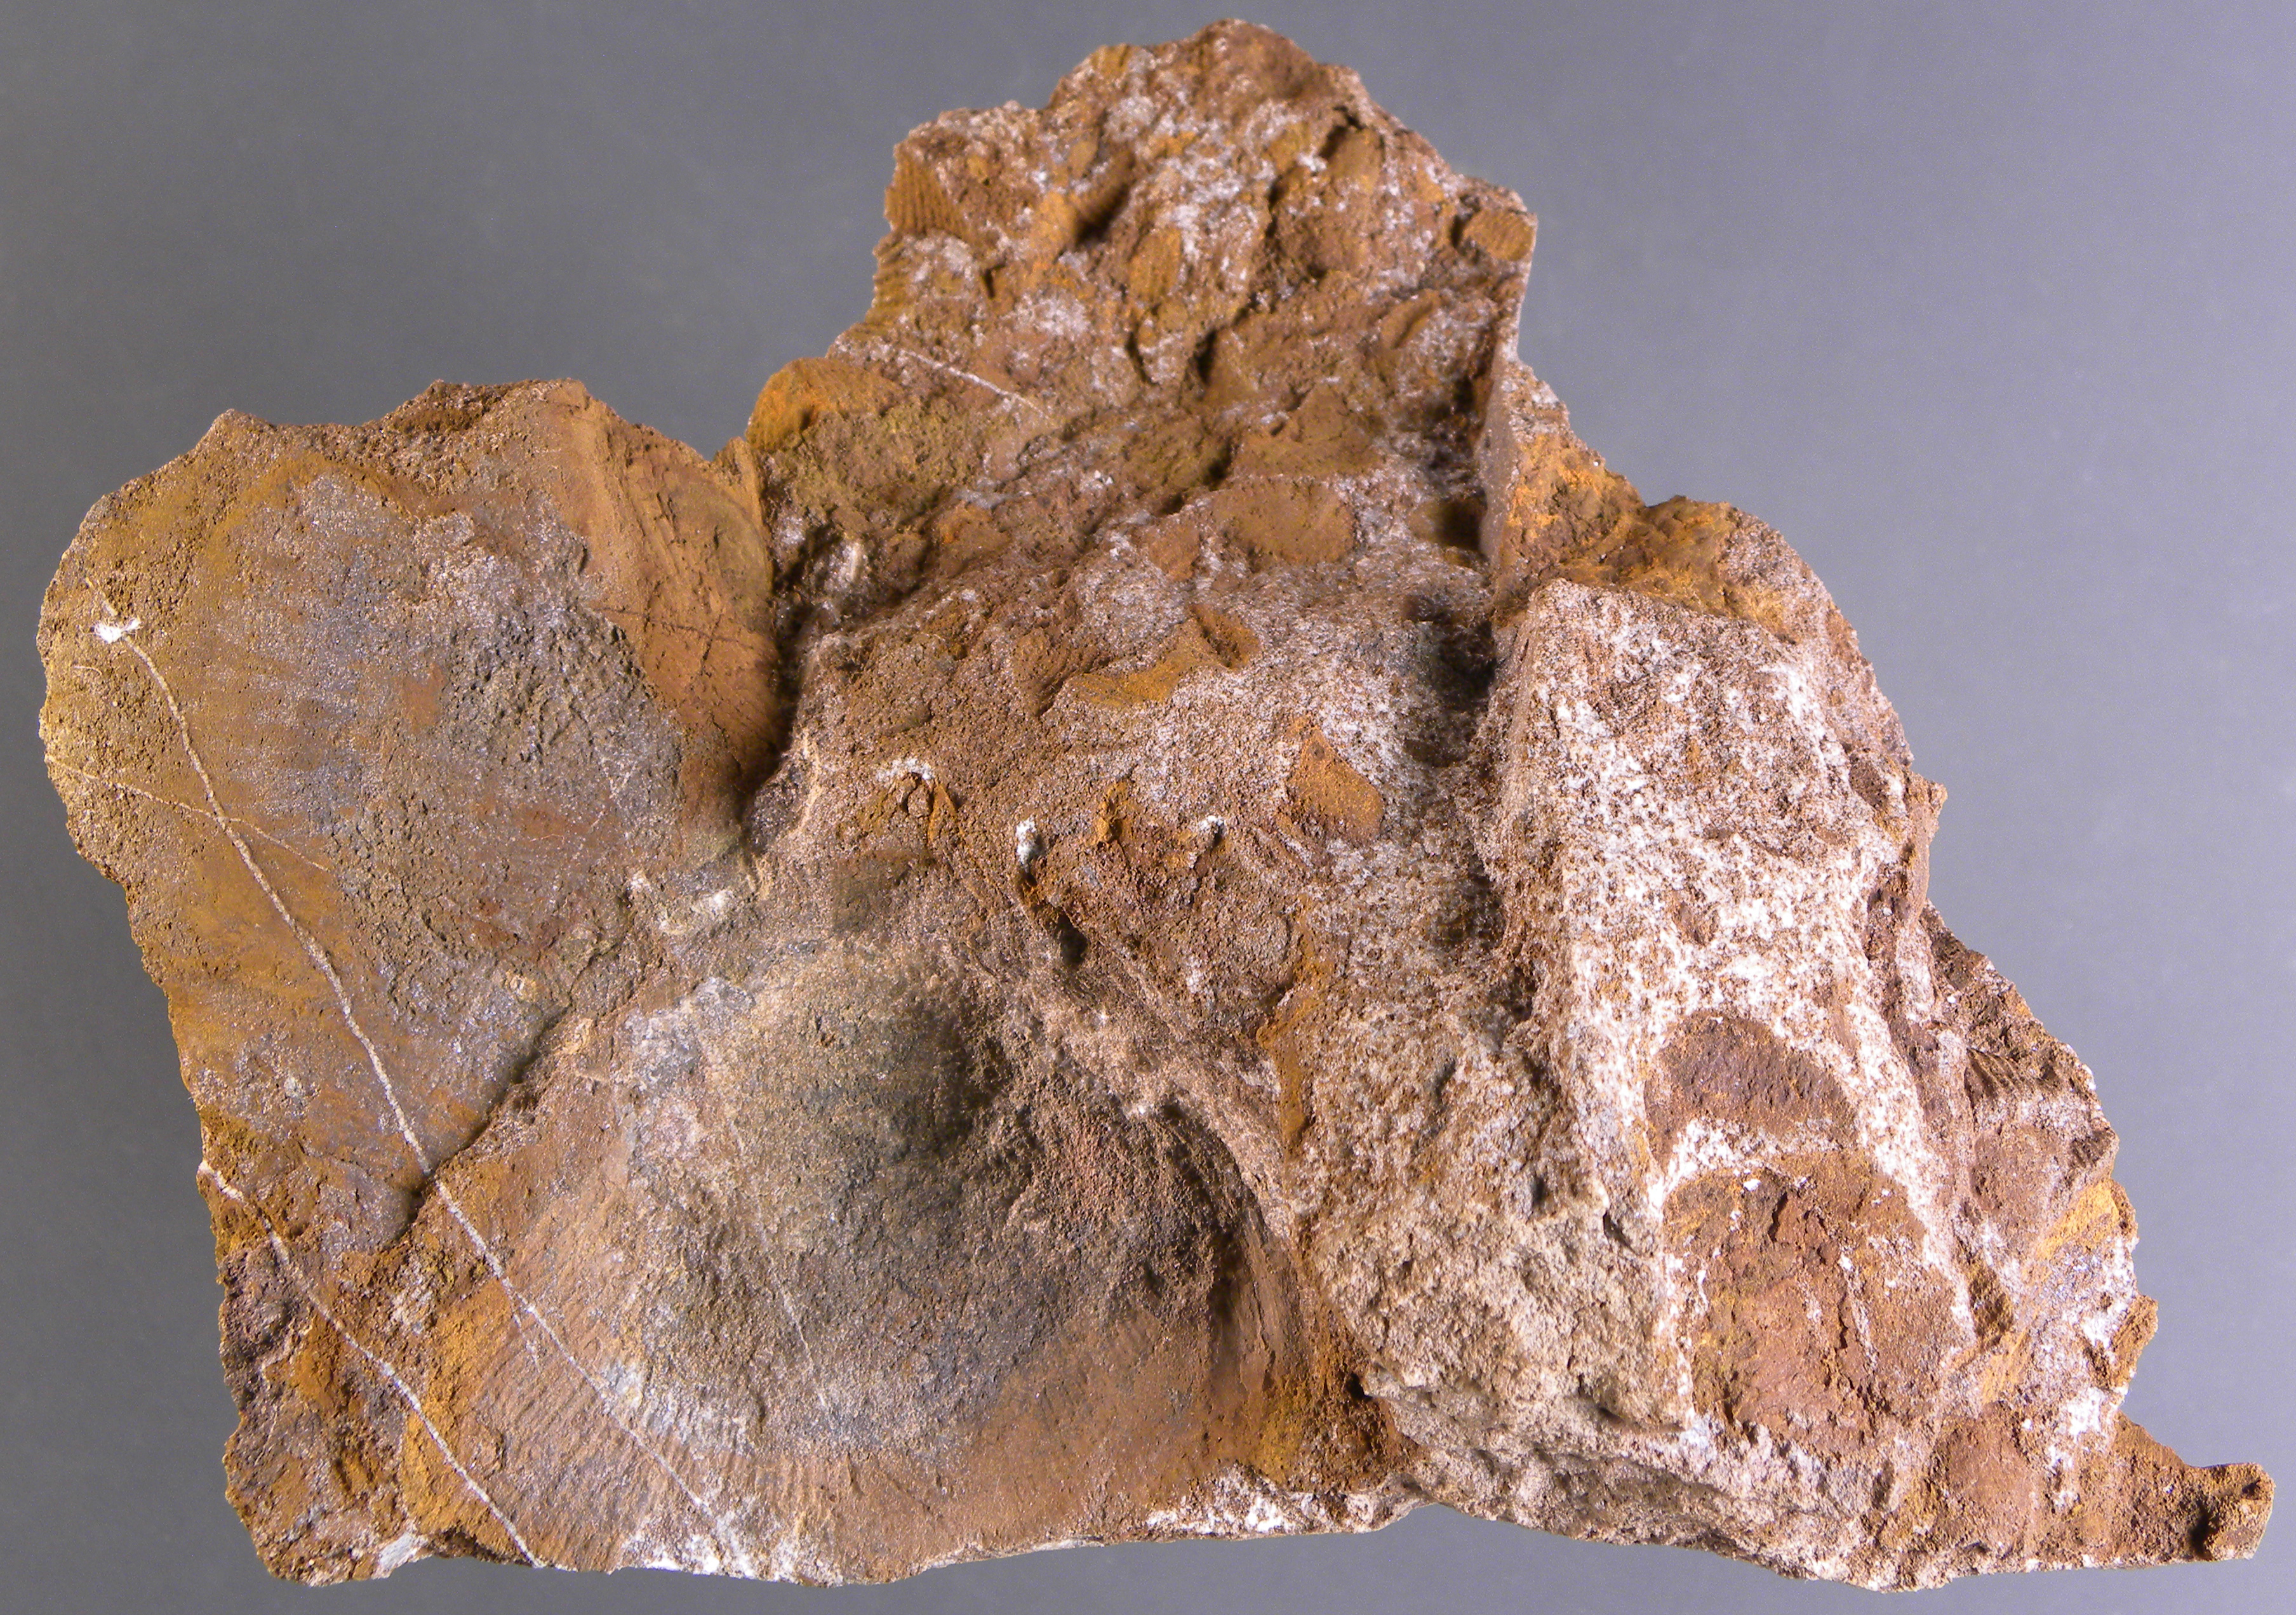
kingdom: Animalia
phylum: Mollusca
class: Bivalvia
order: Ostreida
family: Pterineidae
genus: Limoptera
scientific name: Limoptera
